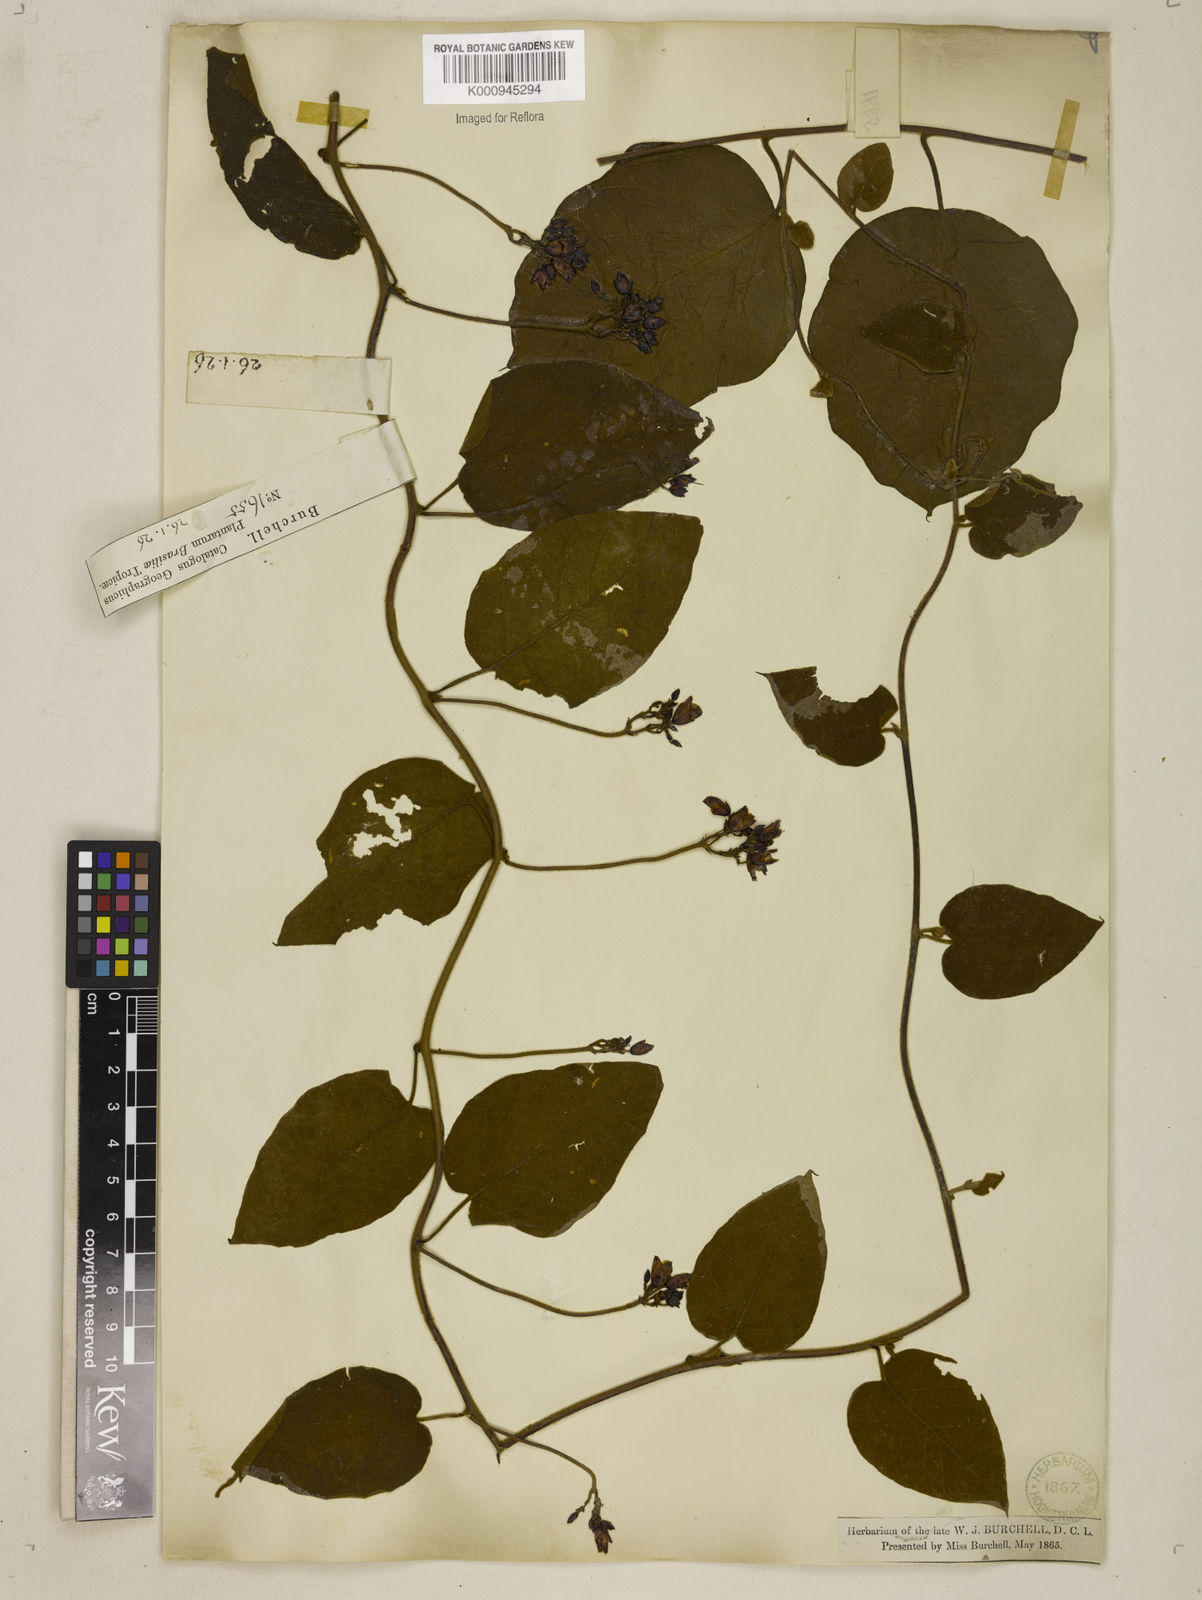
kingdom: Plantae
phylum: Tracheophyta
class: Magnoliopsida
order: Solanales
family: Convolvulaceae
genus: Jacquemontia
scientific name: Jacquemontia holosericea
